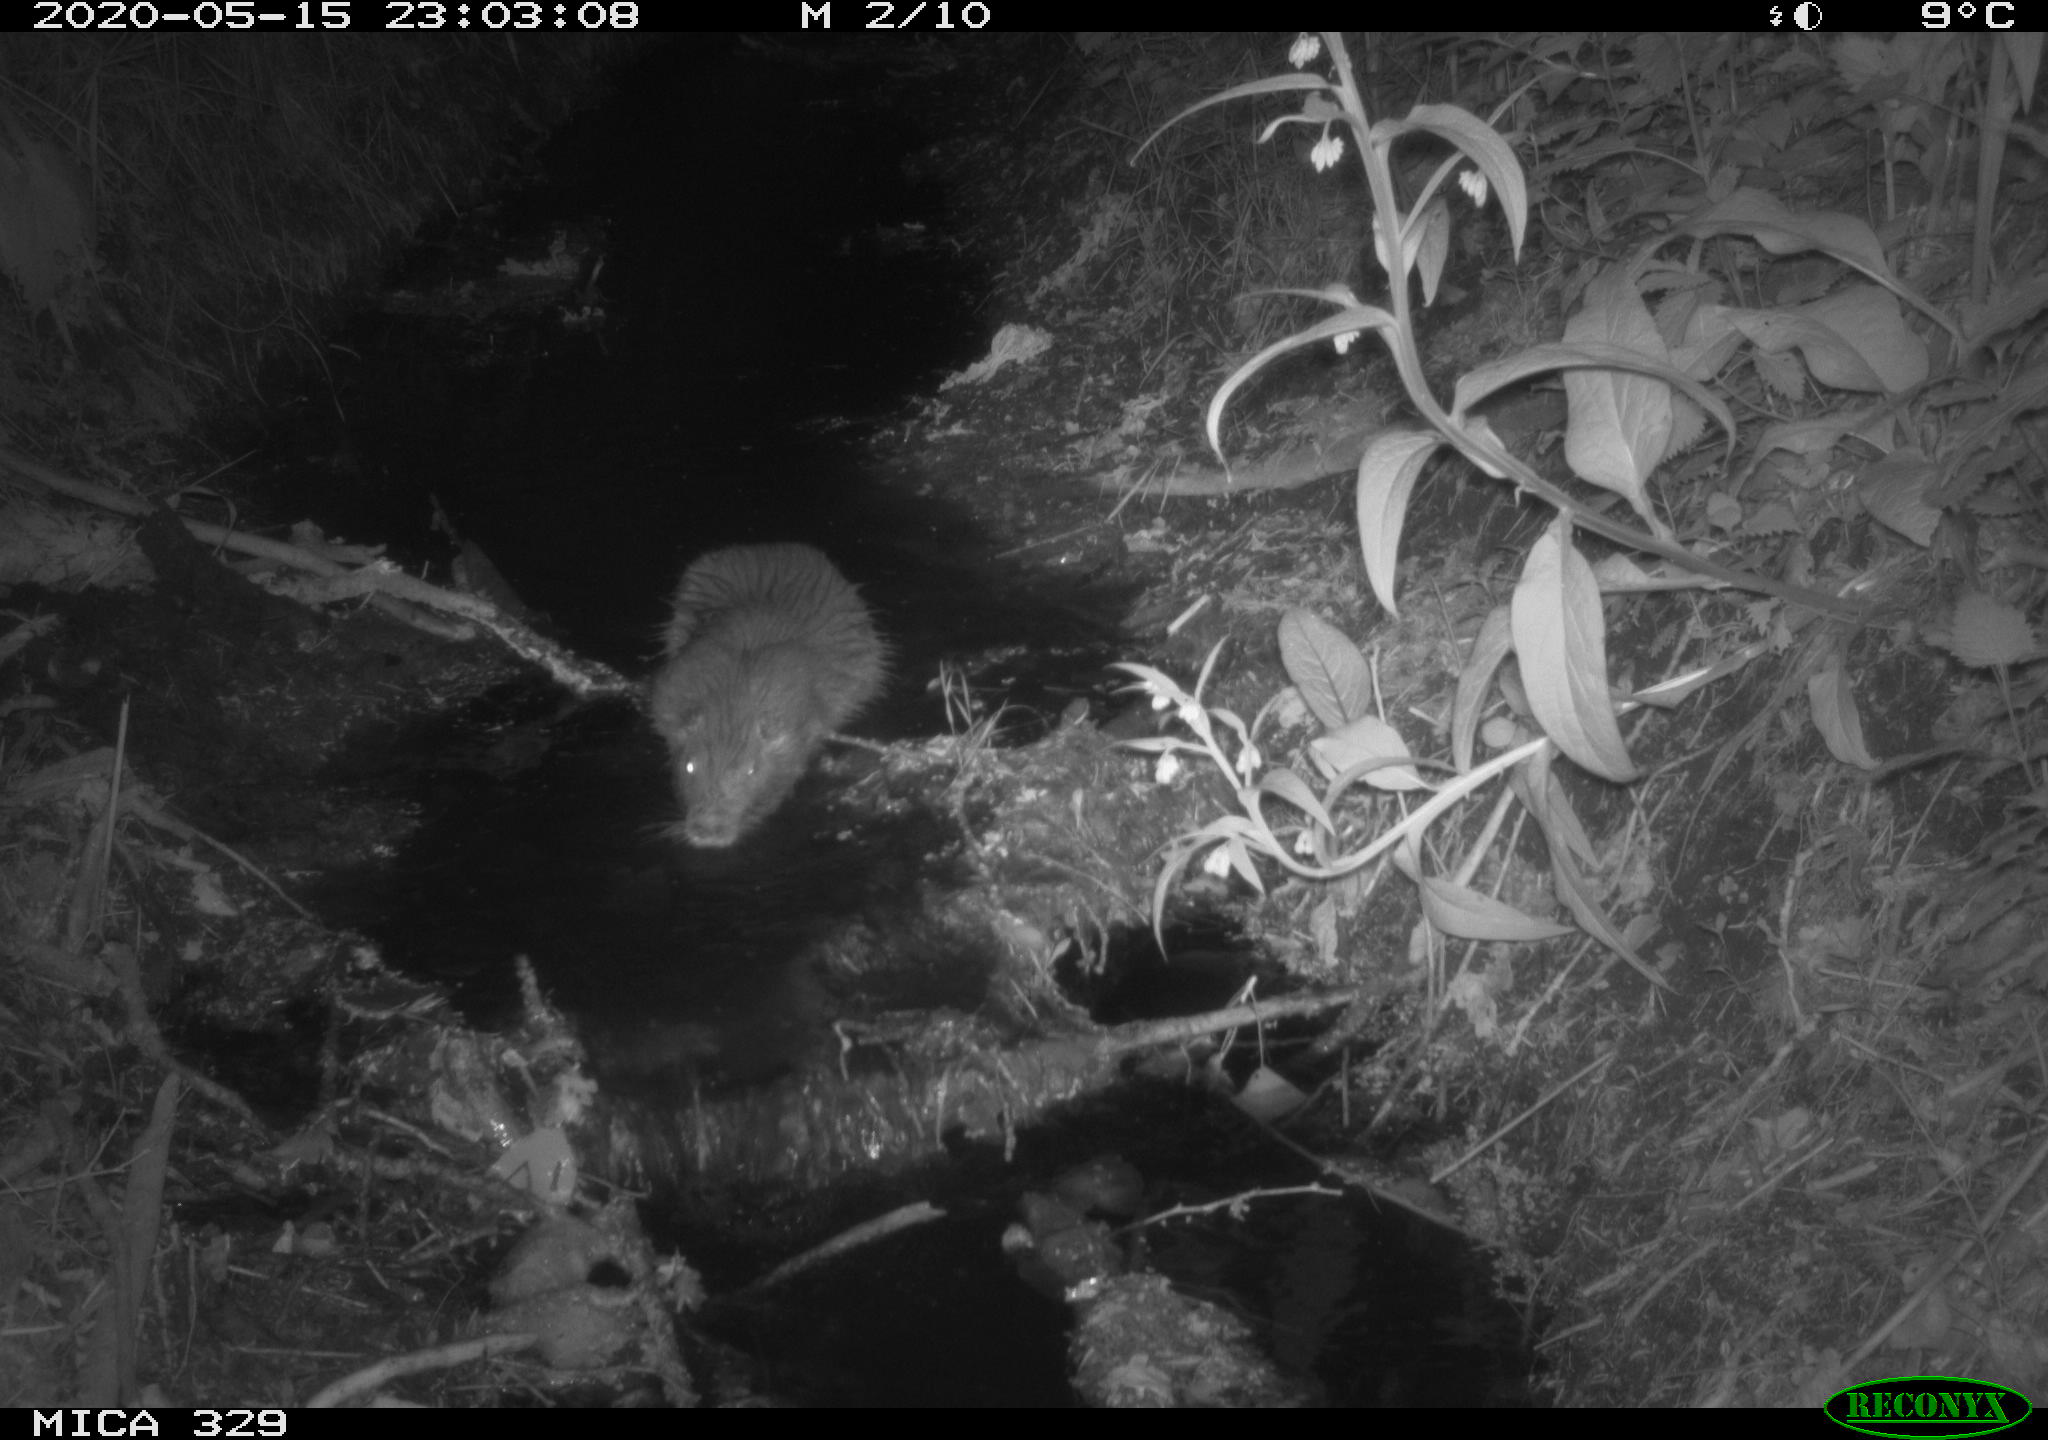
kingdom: Animalia
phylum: Chordata
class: Mammalia
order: Rodentia
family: Myocastoridae
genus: Myocastor
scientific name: Myocastor coypus
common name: Coypu
